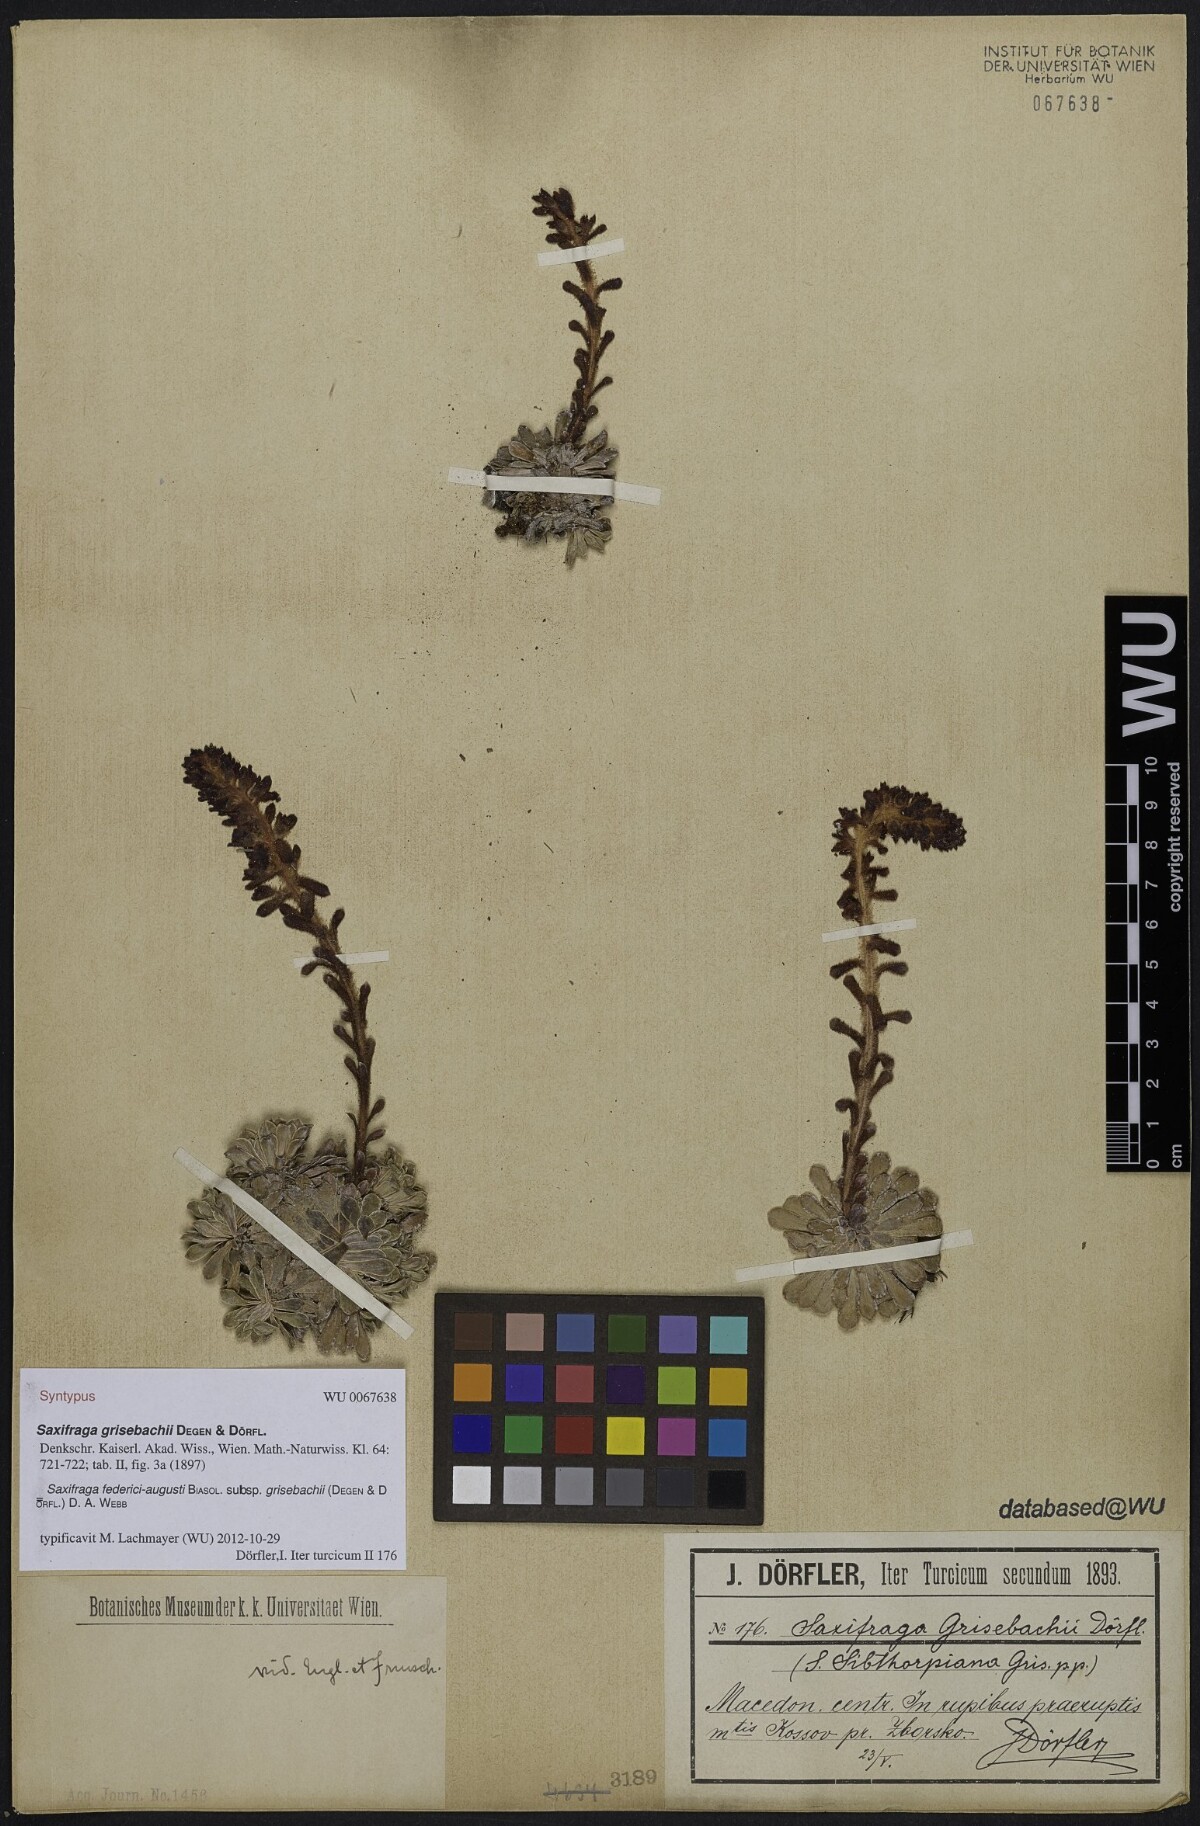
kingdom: Plantae
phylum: Tracheophyta
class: Magnoliopsida
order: Saxifragales
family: Saxifragaceae
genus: Saxifraga
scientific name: Saxifraga federici-augusti
